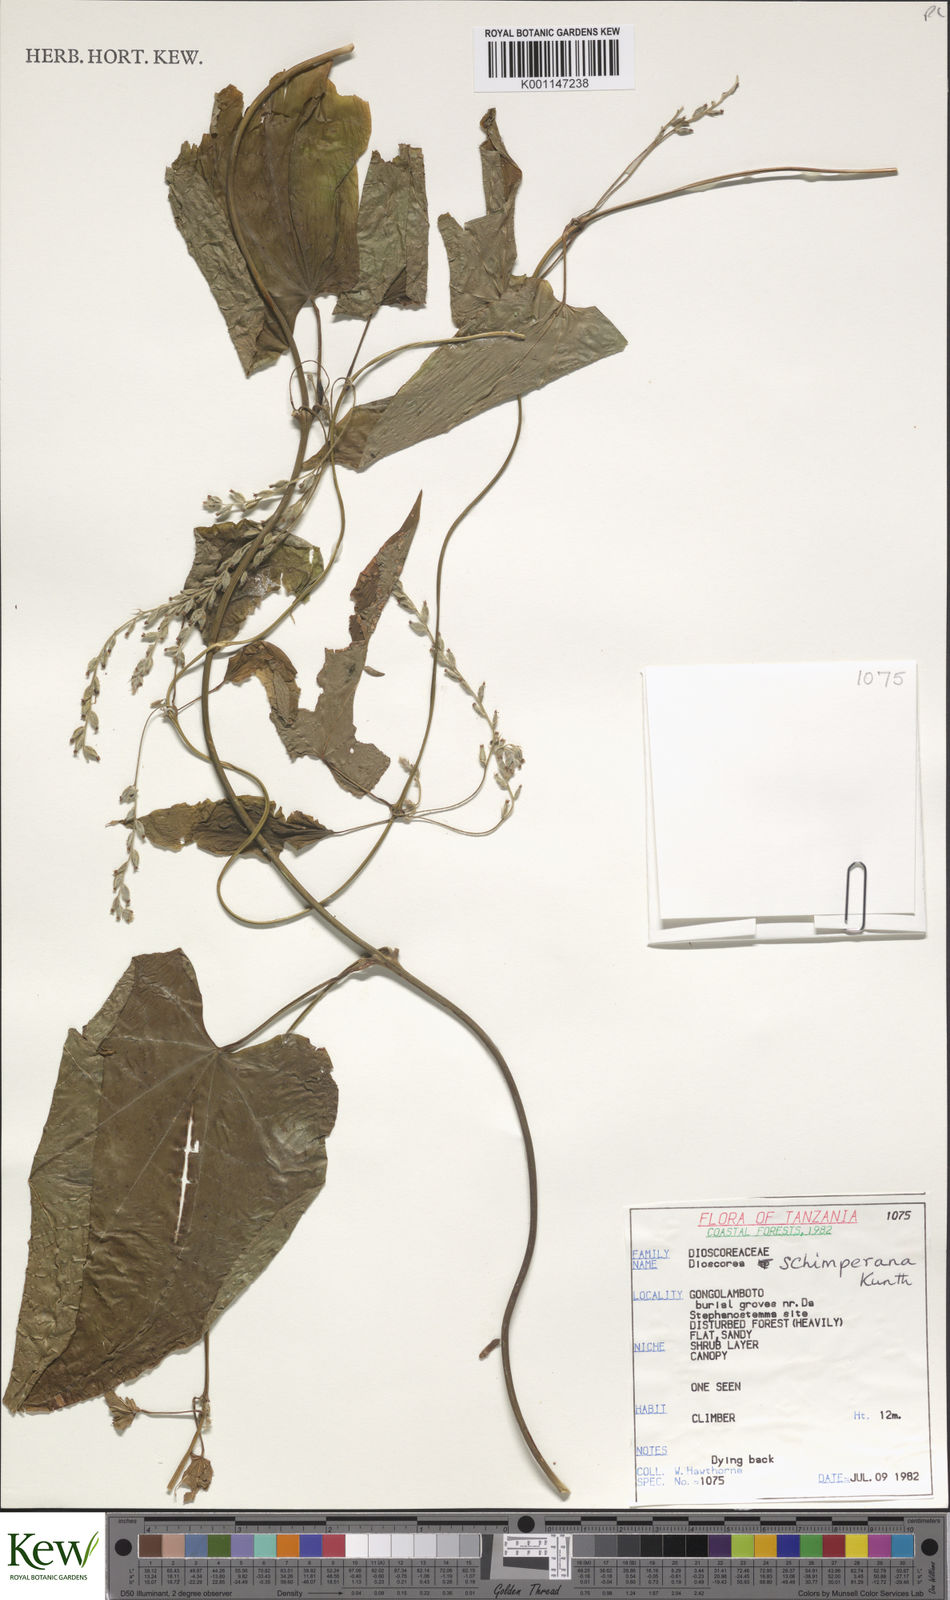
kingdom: Plantae
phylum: Tracheophyta
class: Liliopsida
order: Dioscoreales
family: Dioscoreaceae
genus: Dioscorea
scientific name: Dioscorea schimperiana
